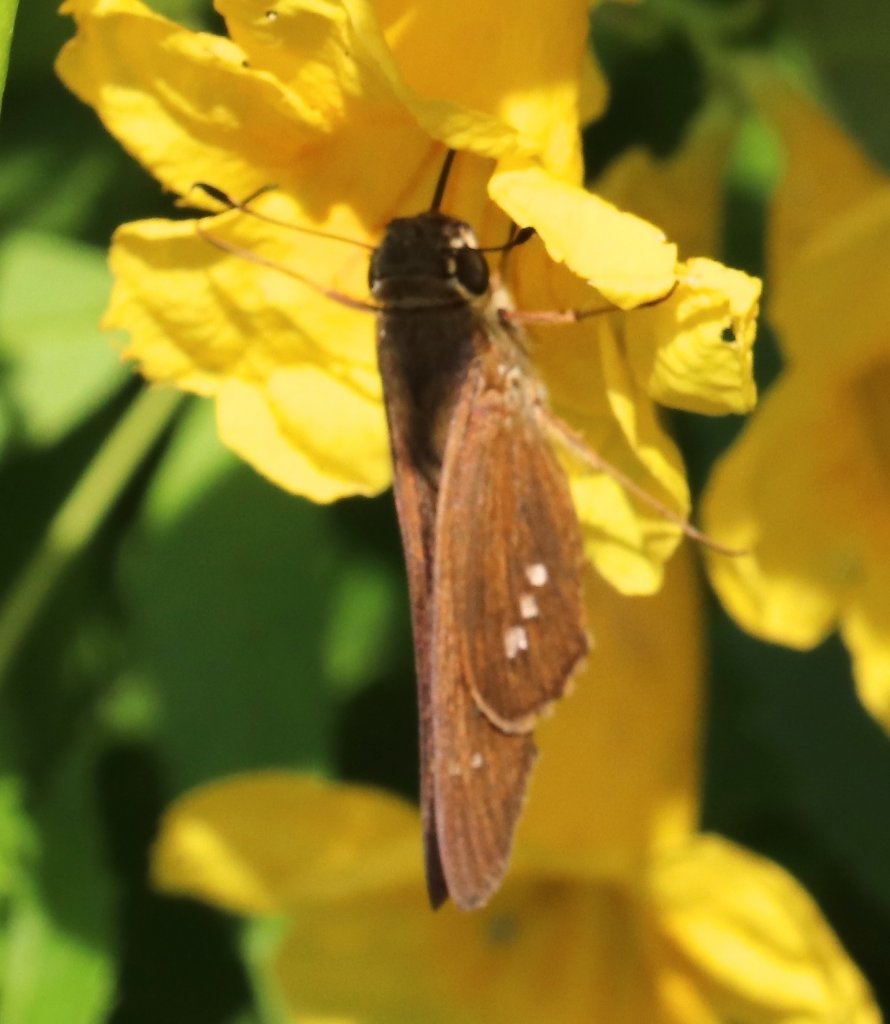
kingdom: Animalia
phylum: Arthropoda
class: Insecta
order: Lepidoptera
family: Hesperiidae
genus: Calpodes
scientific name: Calpodes ethlius
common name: Brazilian Skipper
